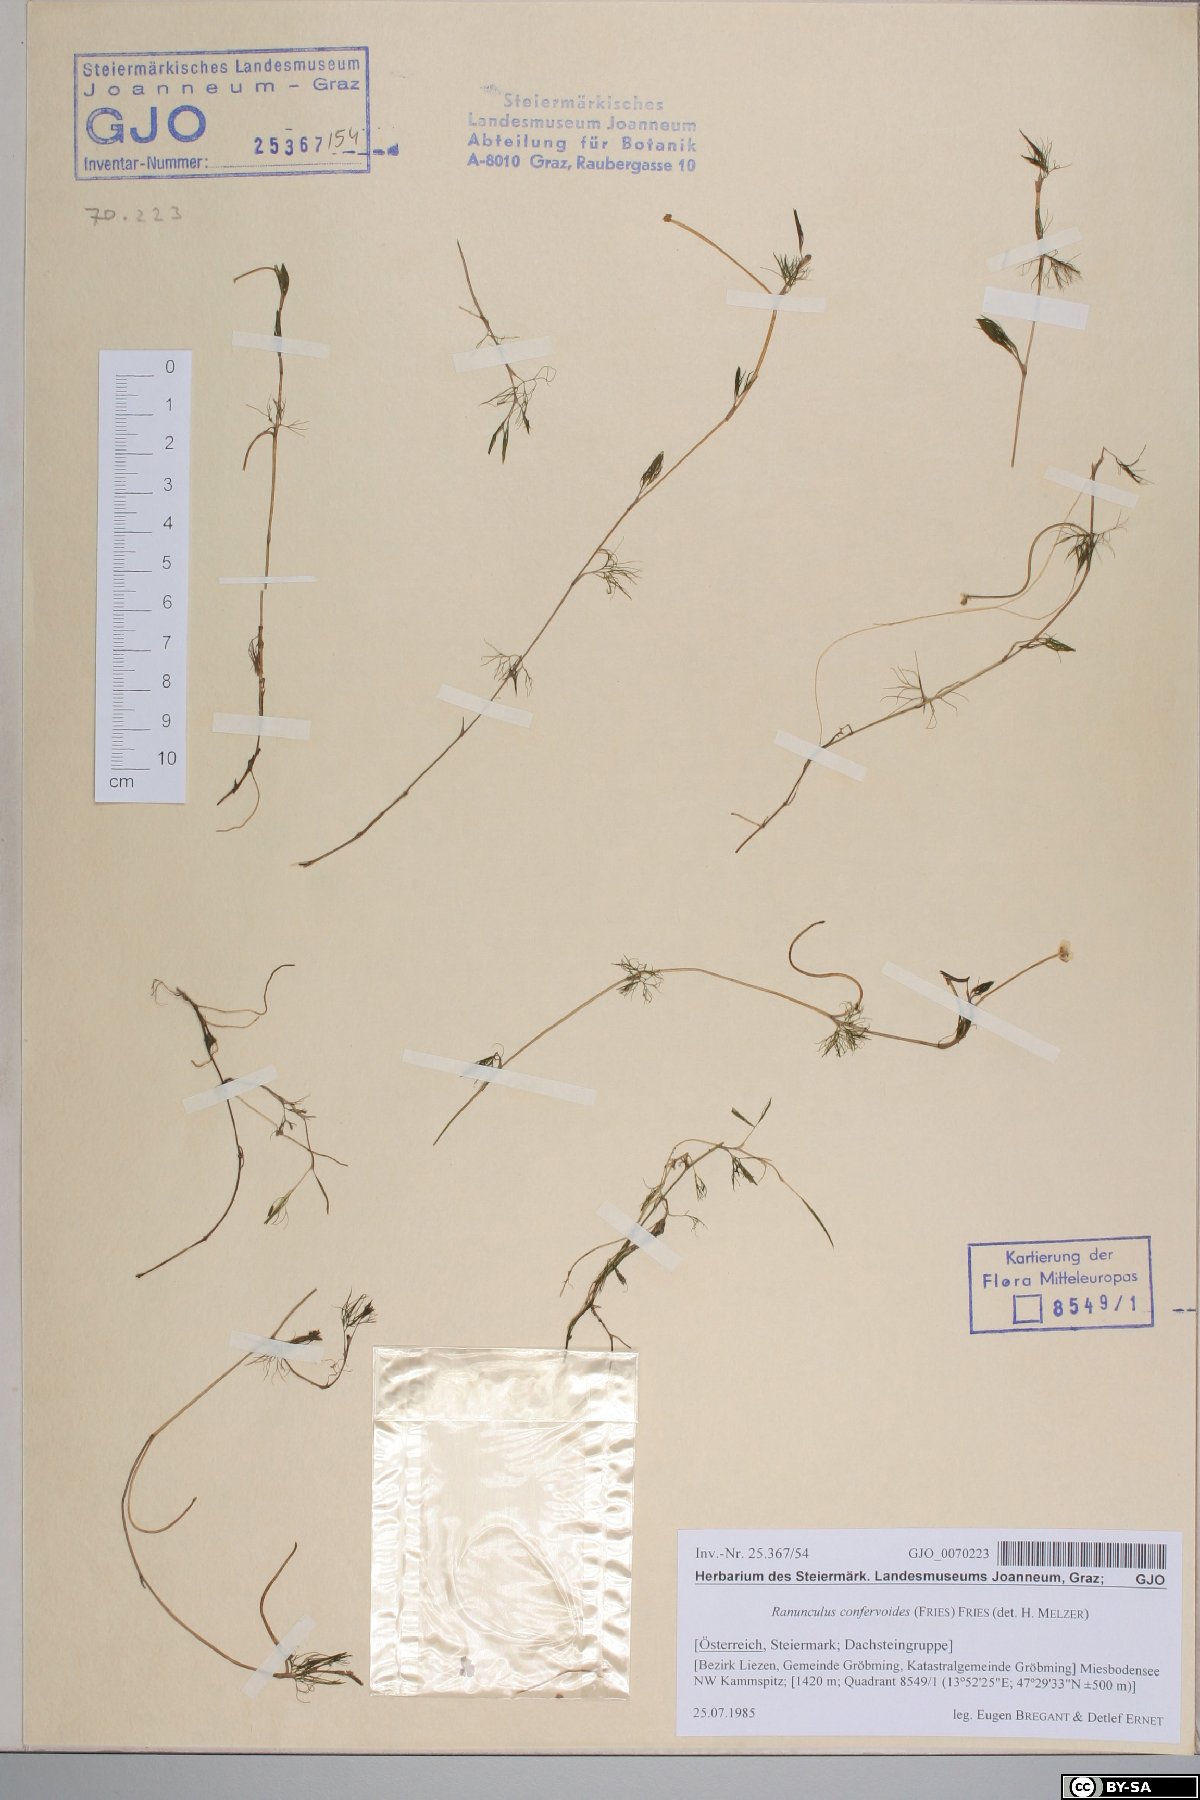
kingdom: Plantae
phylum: Tracheophyta
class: Magnoliopsida
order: Ranunculales
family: Ranunculaceae
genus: Ranunculus
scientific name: Ranunculus confervoides
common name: Delicate buttercup
